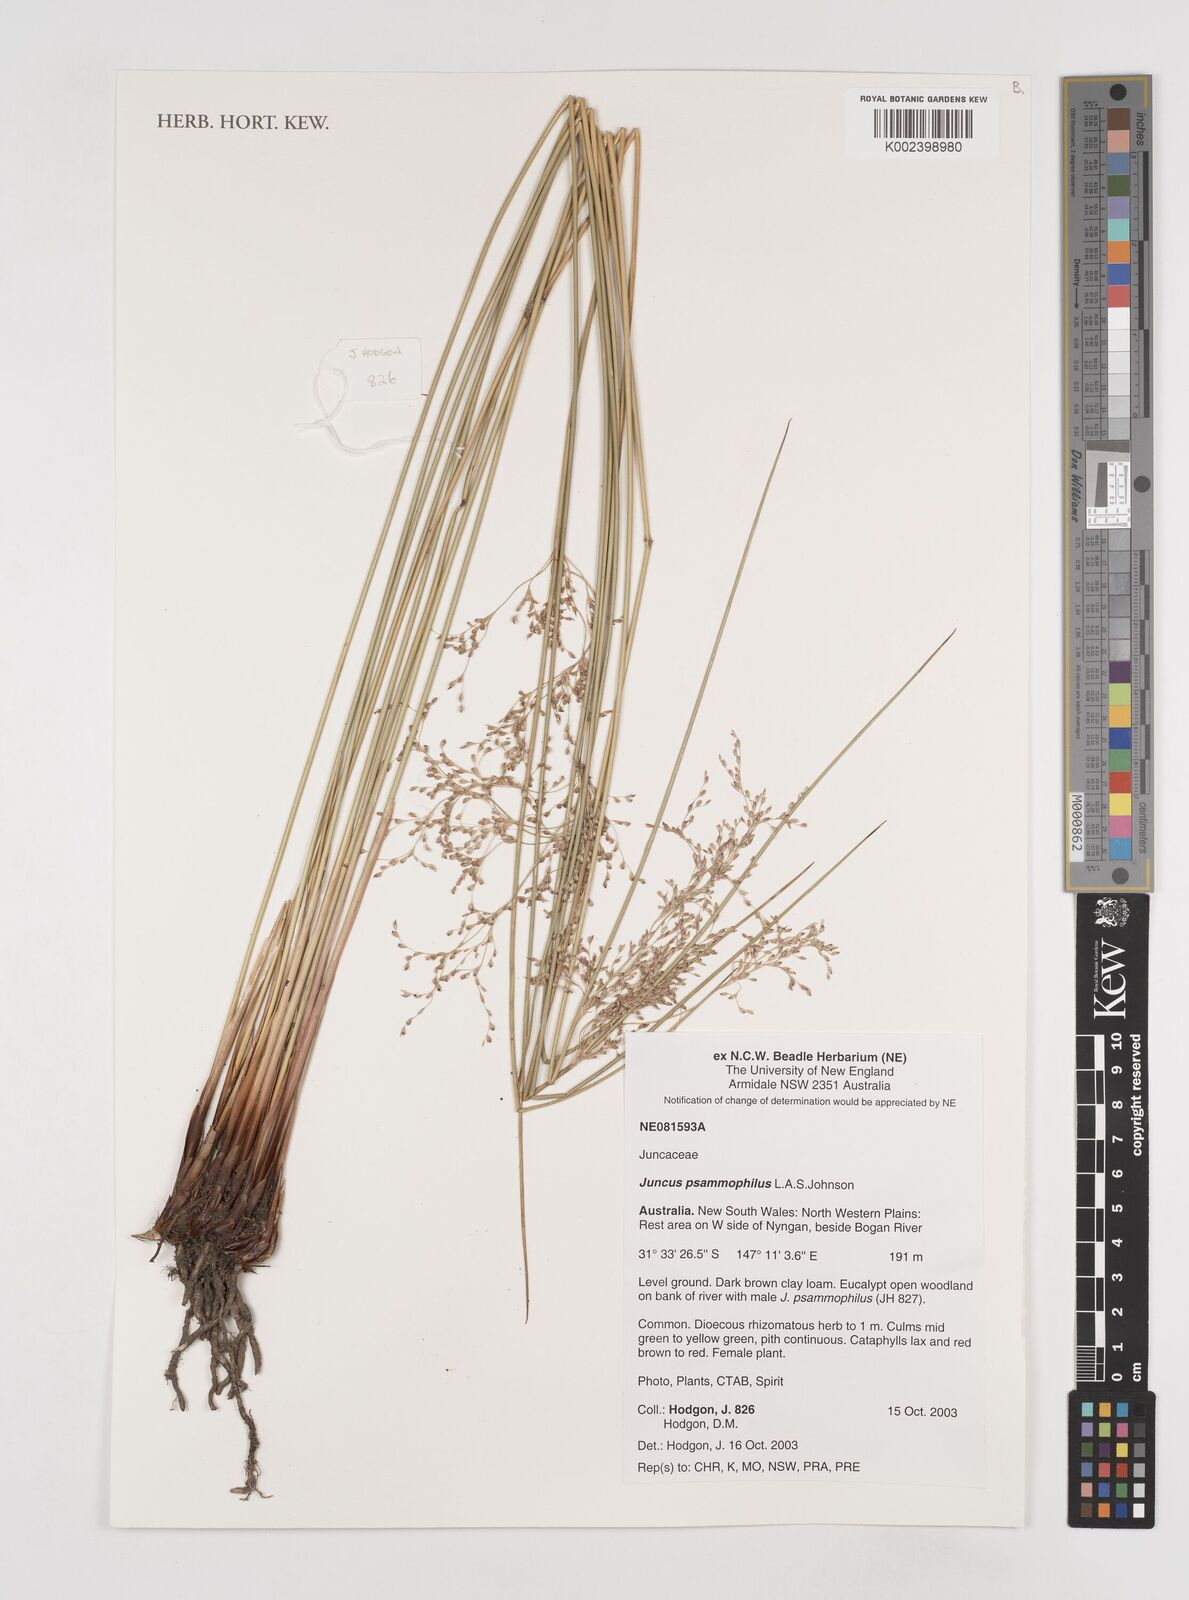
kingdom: Plantae
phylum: Tracheophyta
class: Liliopsida
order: Poales
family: Juncaceae
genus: Juncus
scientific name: Juncus psammophilus
